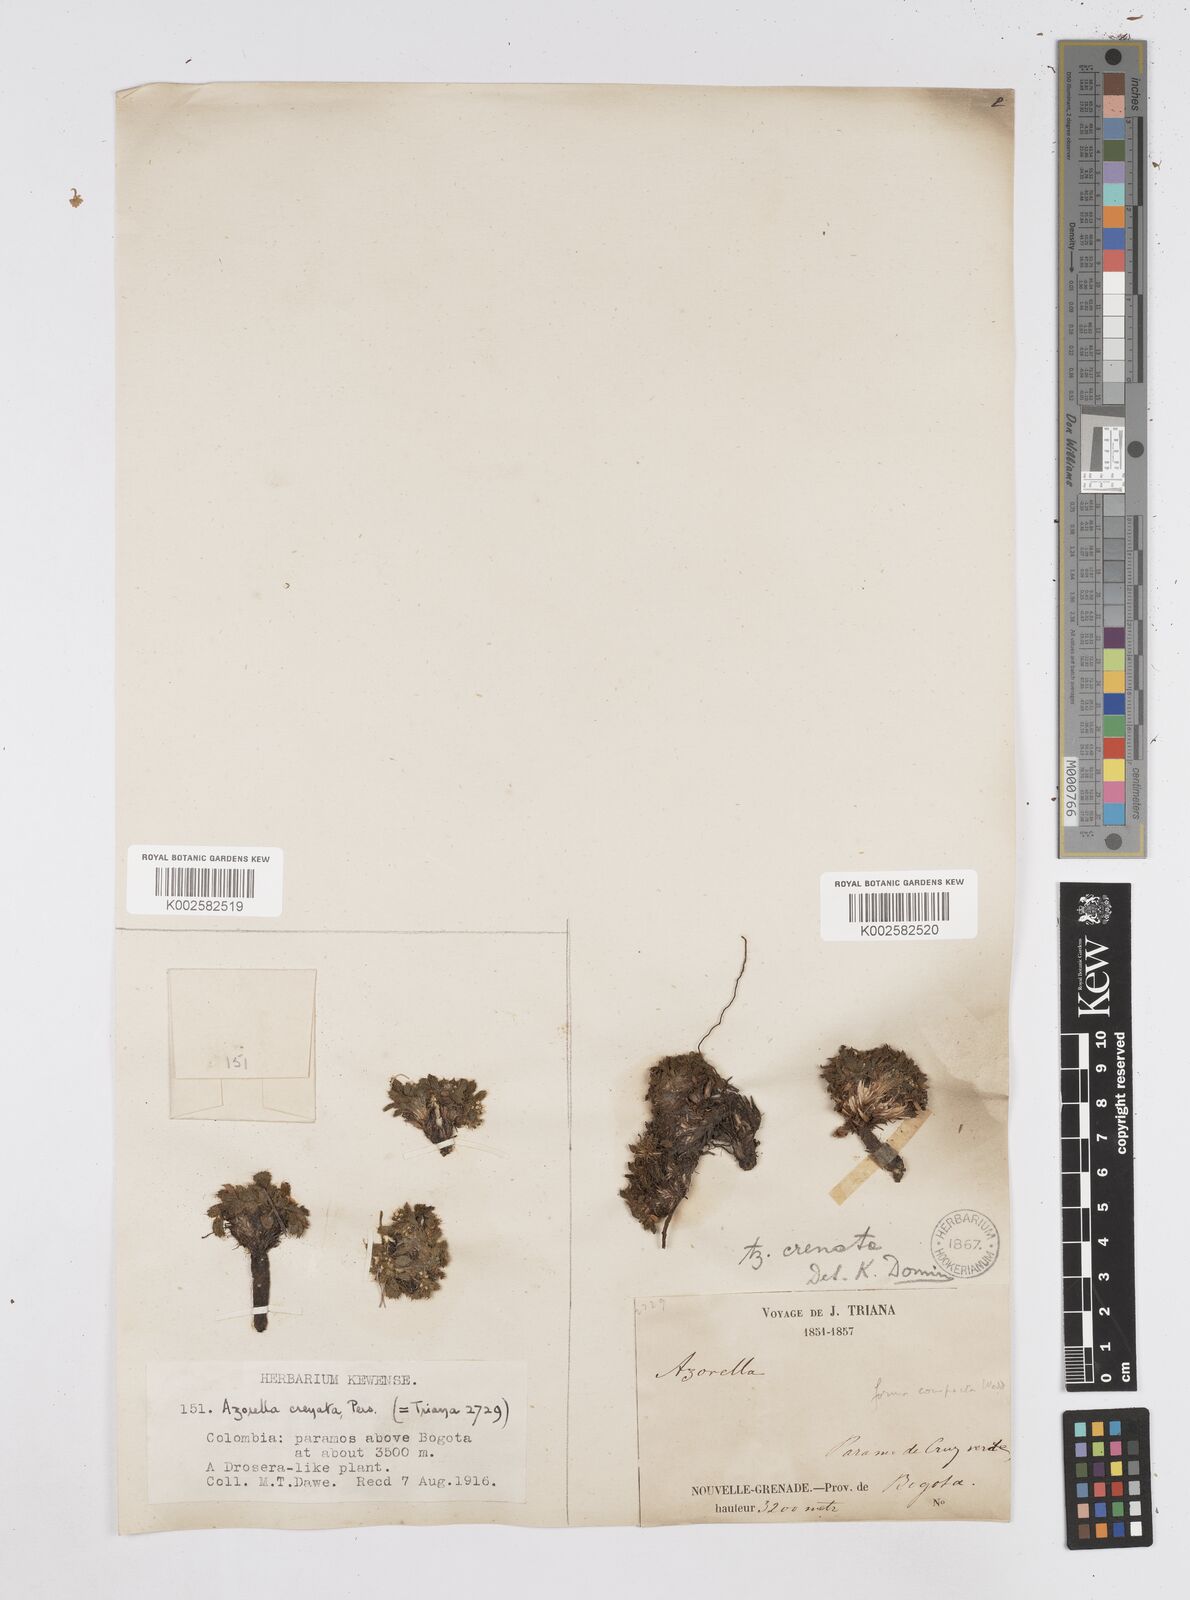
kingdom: Plantae
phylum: Tracheophyta
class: Magnoliopsida
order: Apiales
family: Apiaceae
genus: Azorella
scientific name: Azorella crenata
